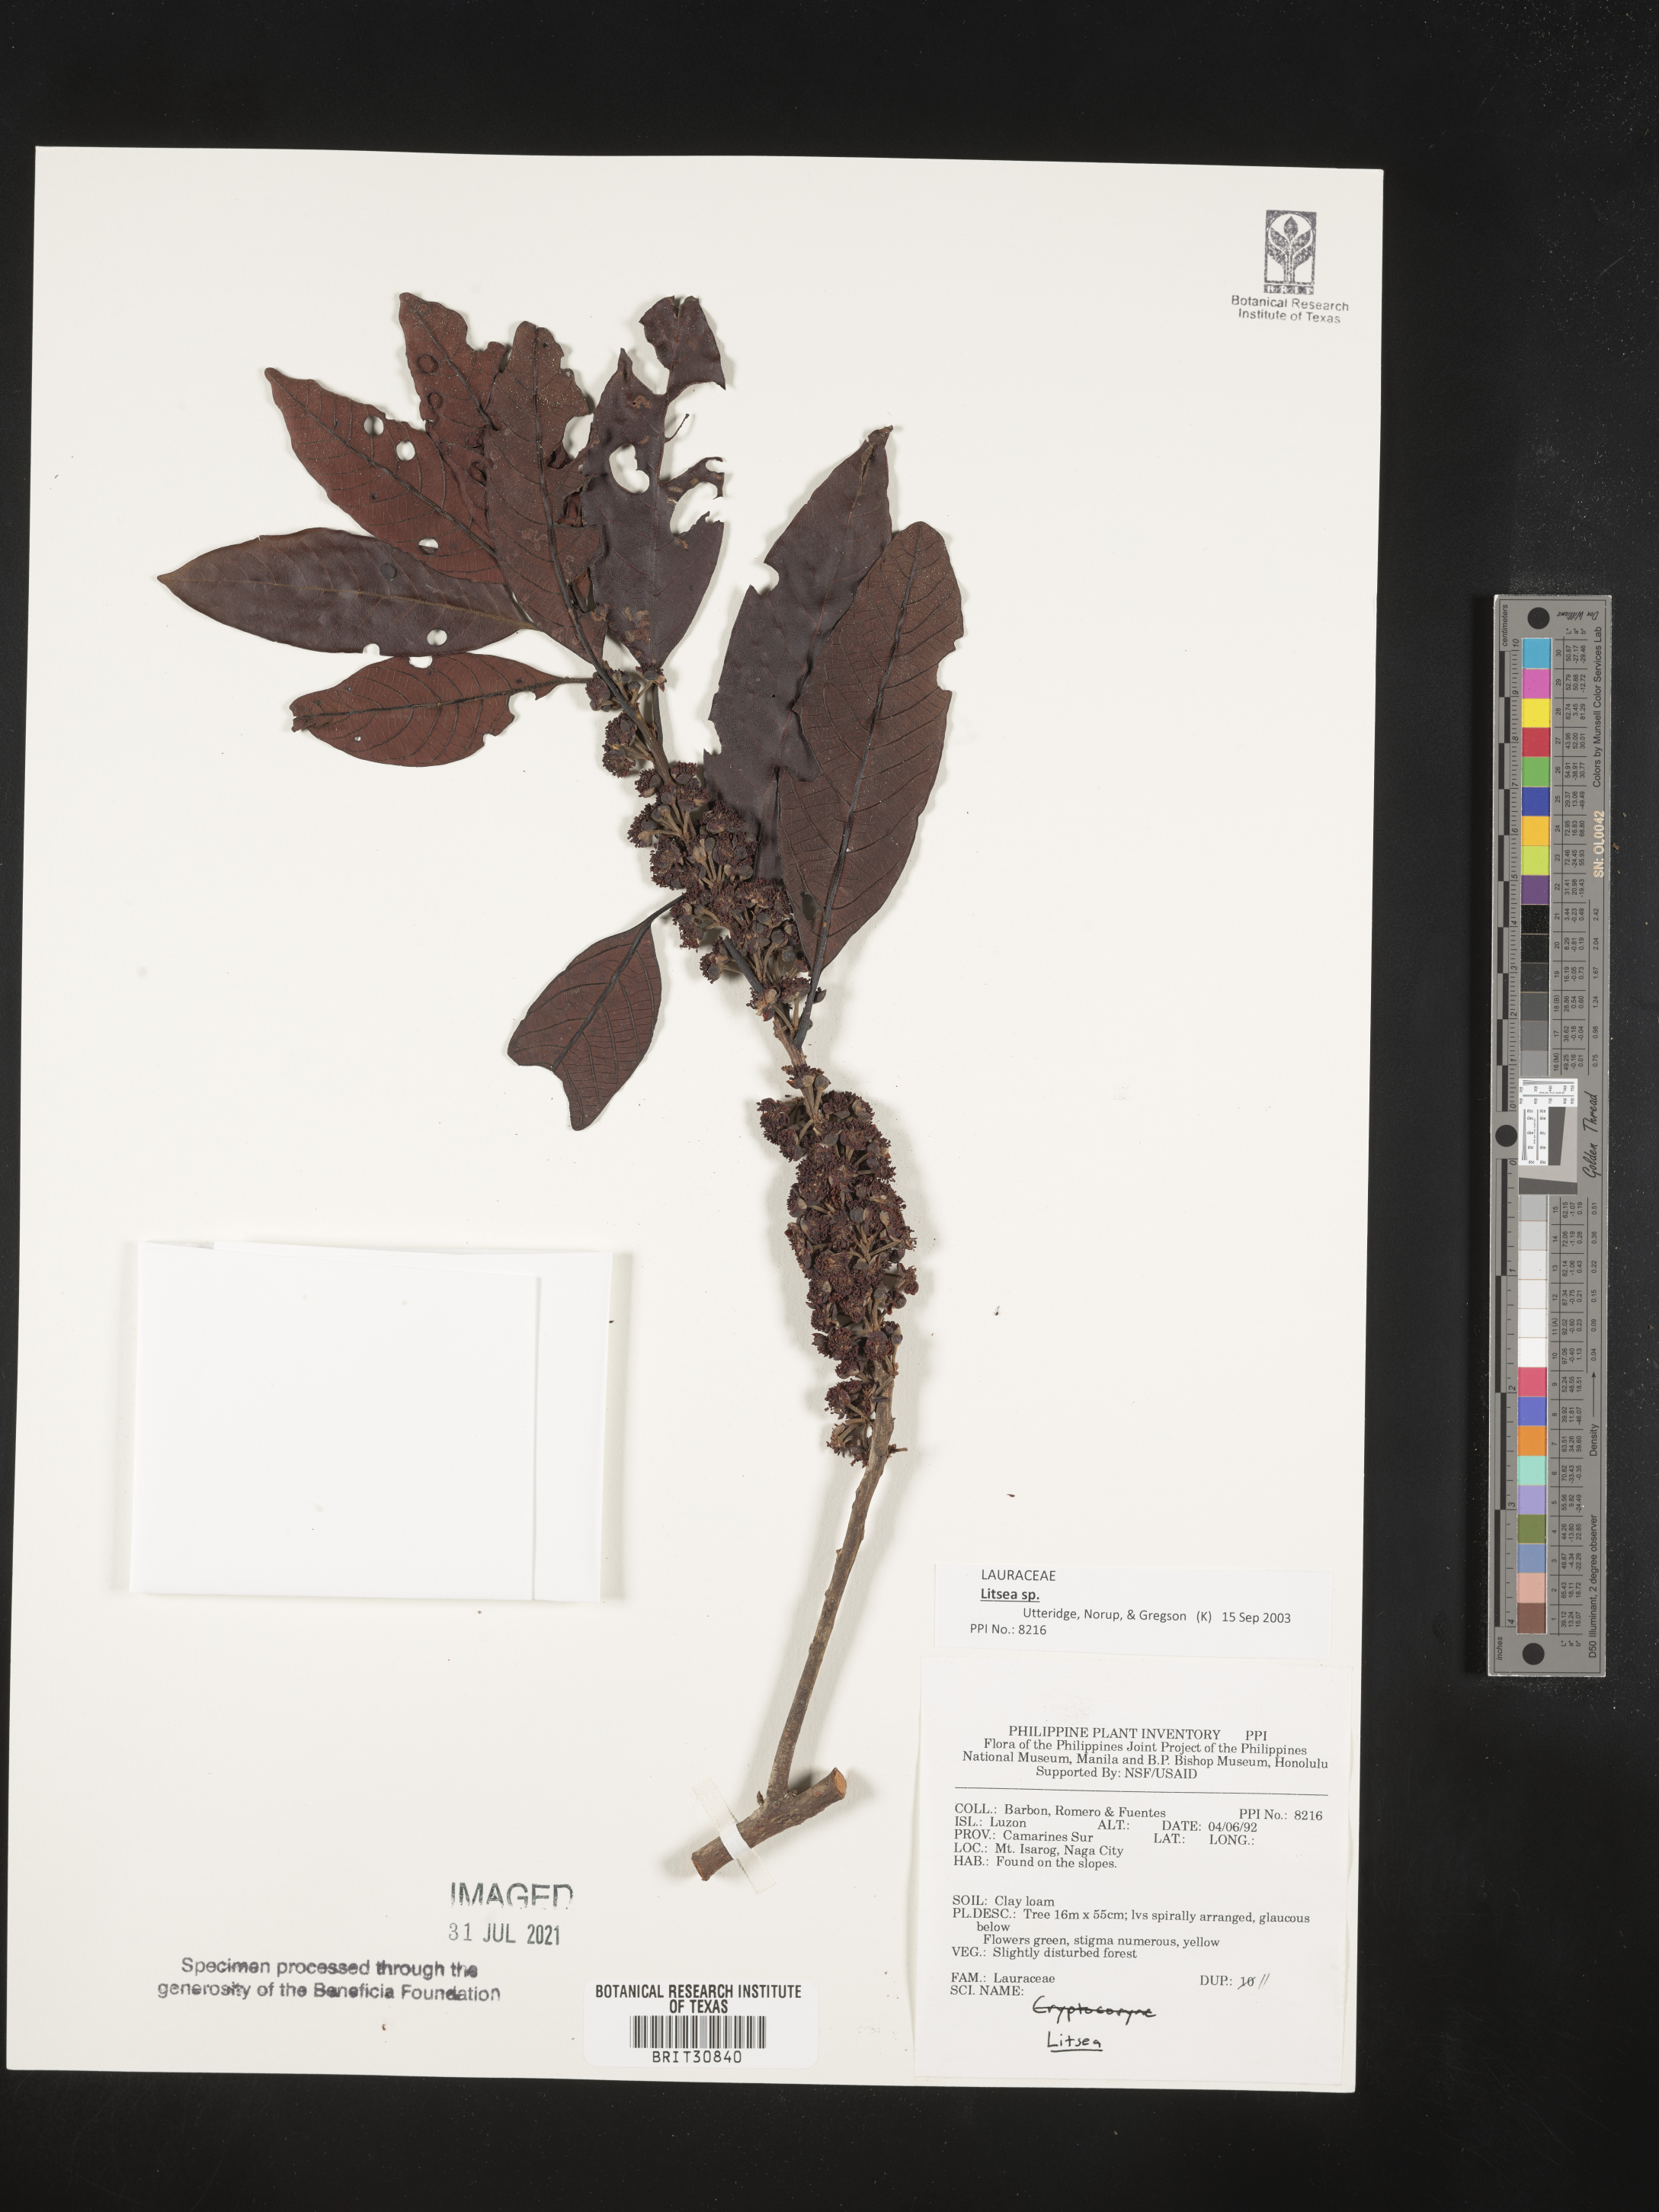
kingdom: Plantae
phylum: Tracheophyta
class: Magnoliopsida
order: Laurales
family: Lauraceae
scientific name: Lauraceae
